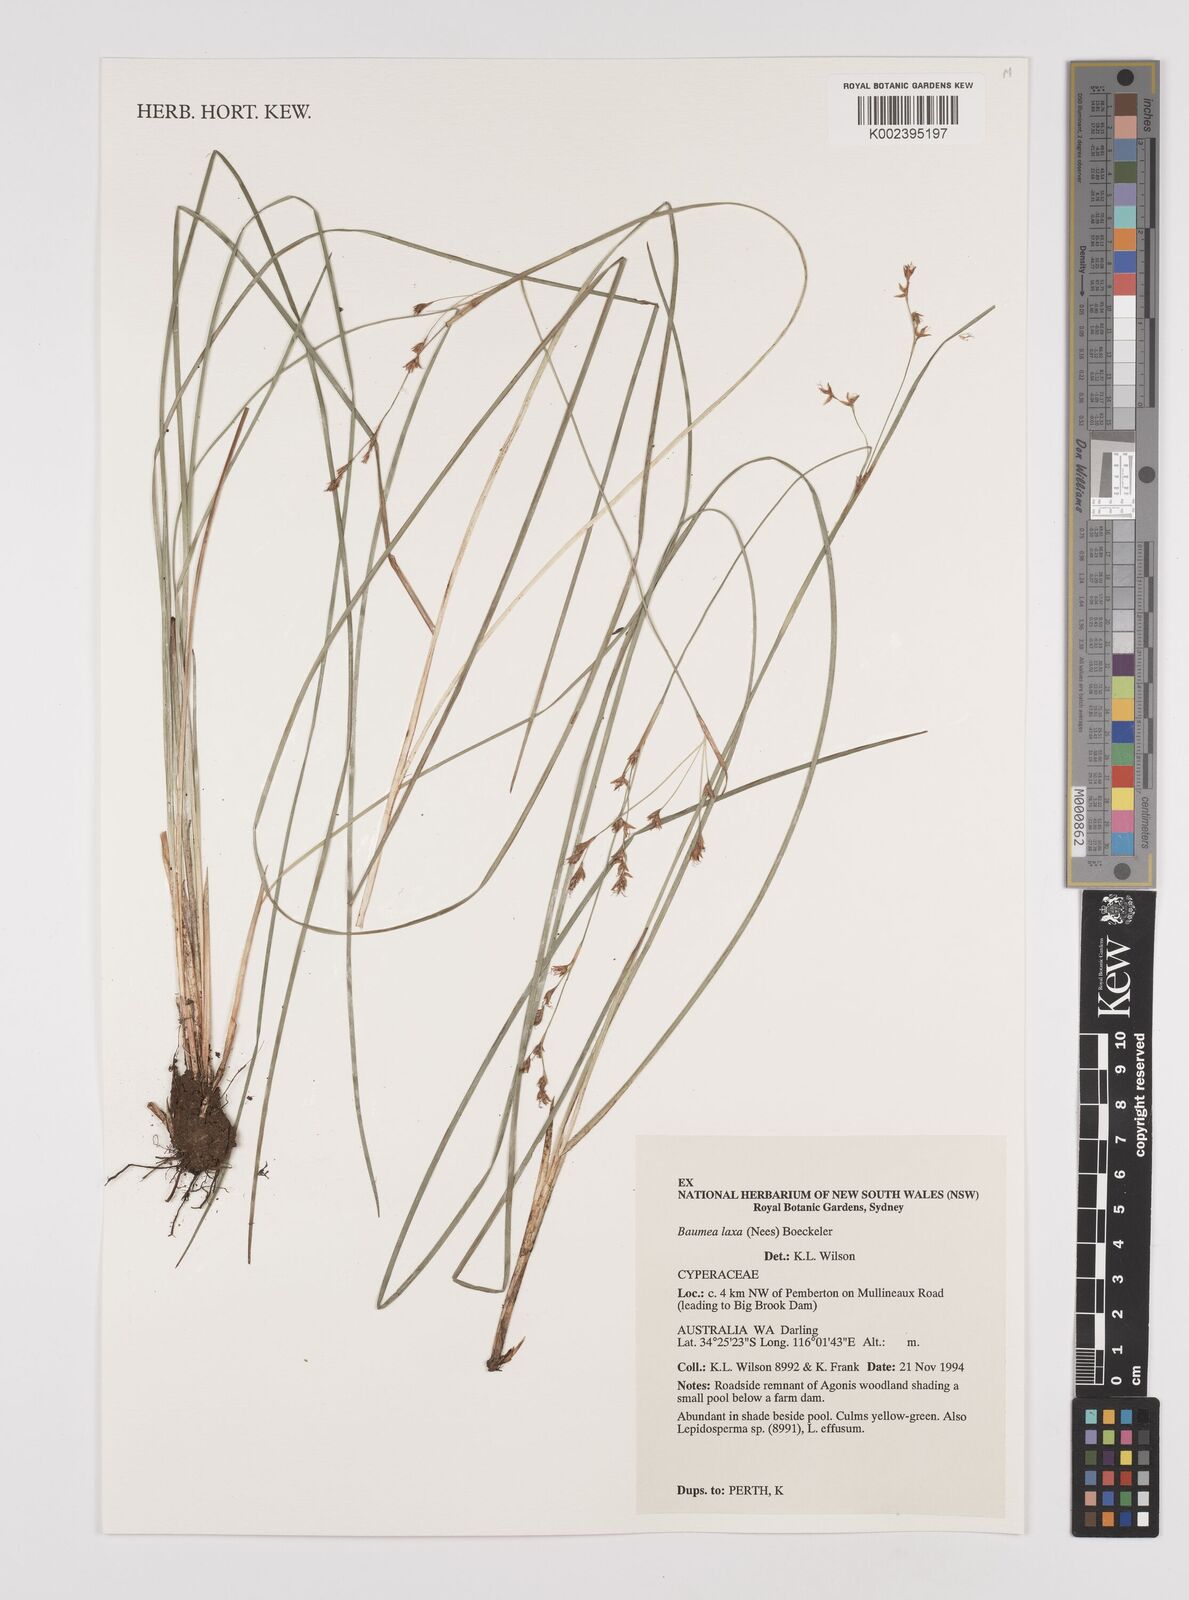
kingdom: Plantae
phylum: Tracheophyta
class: Liliopsida
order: Poales
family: Cyperaceae
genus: Machaerina
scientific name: Machaerina laxa
